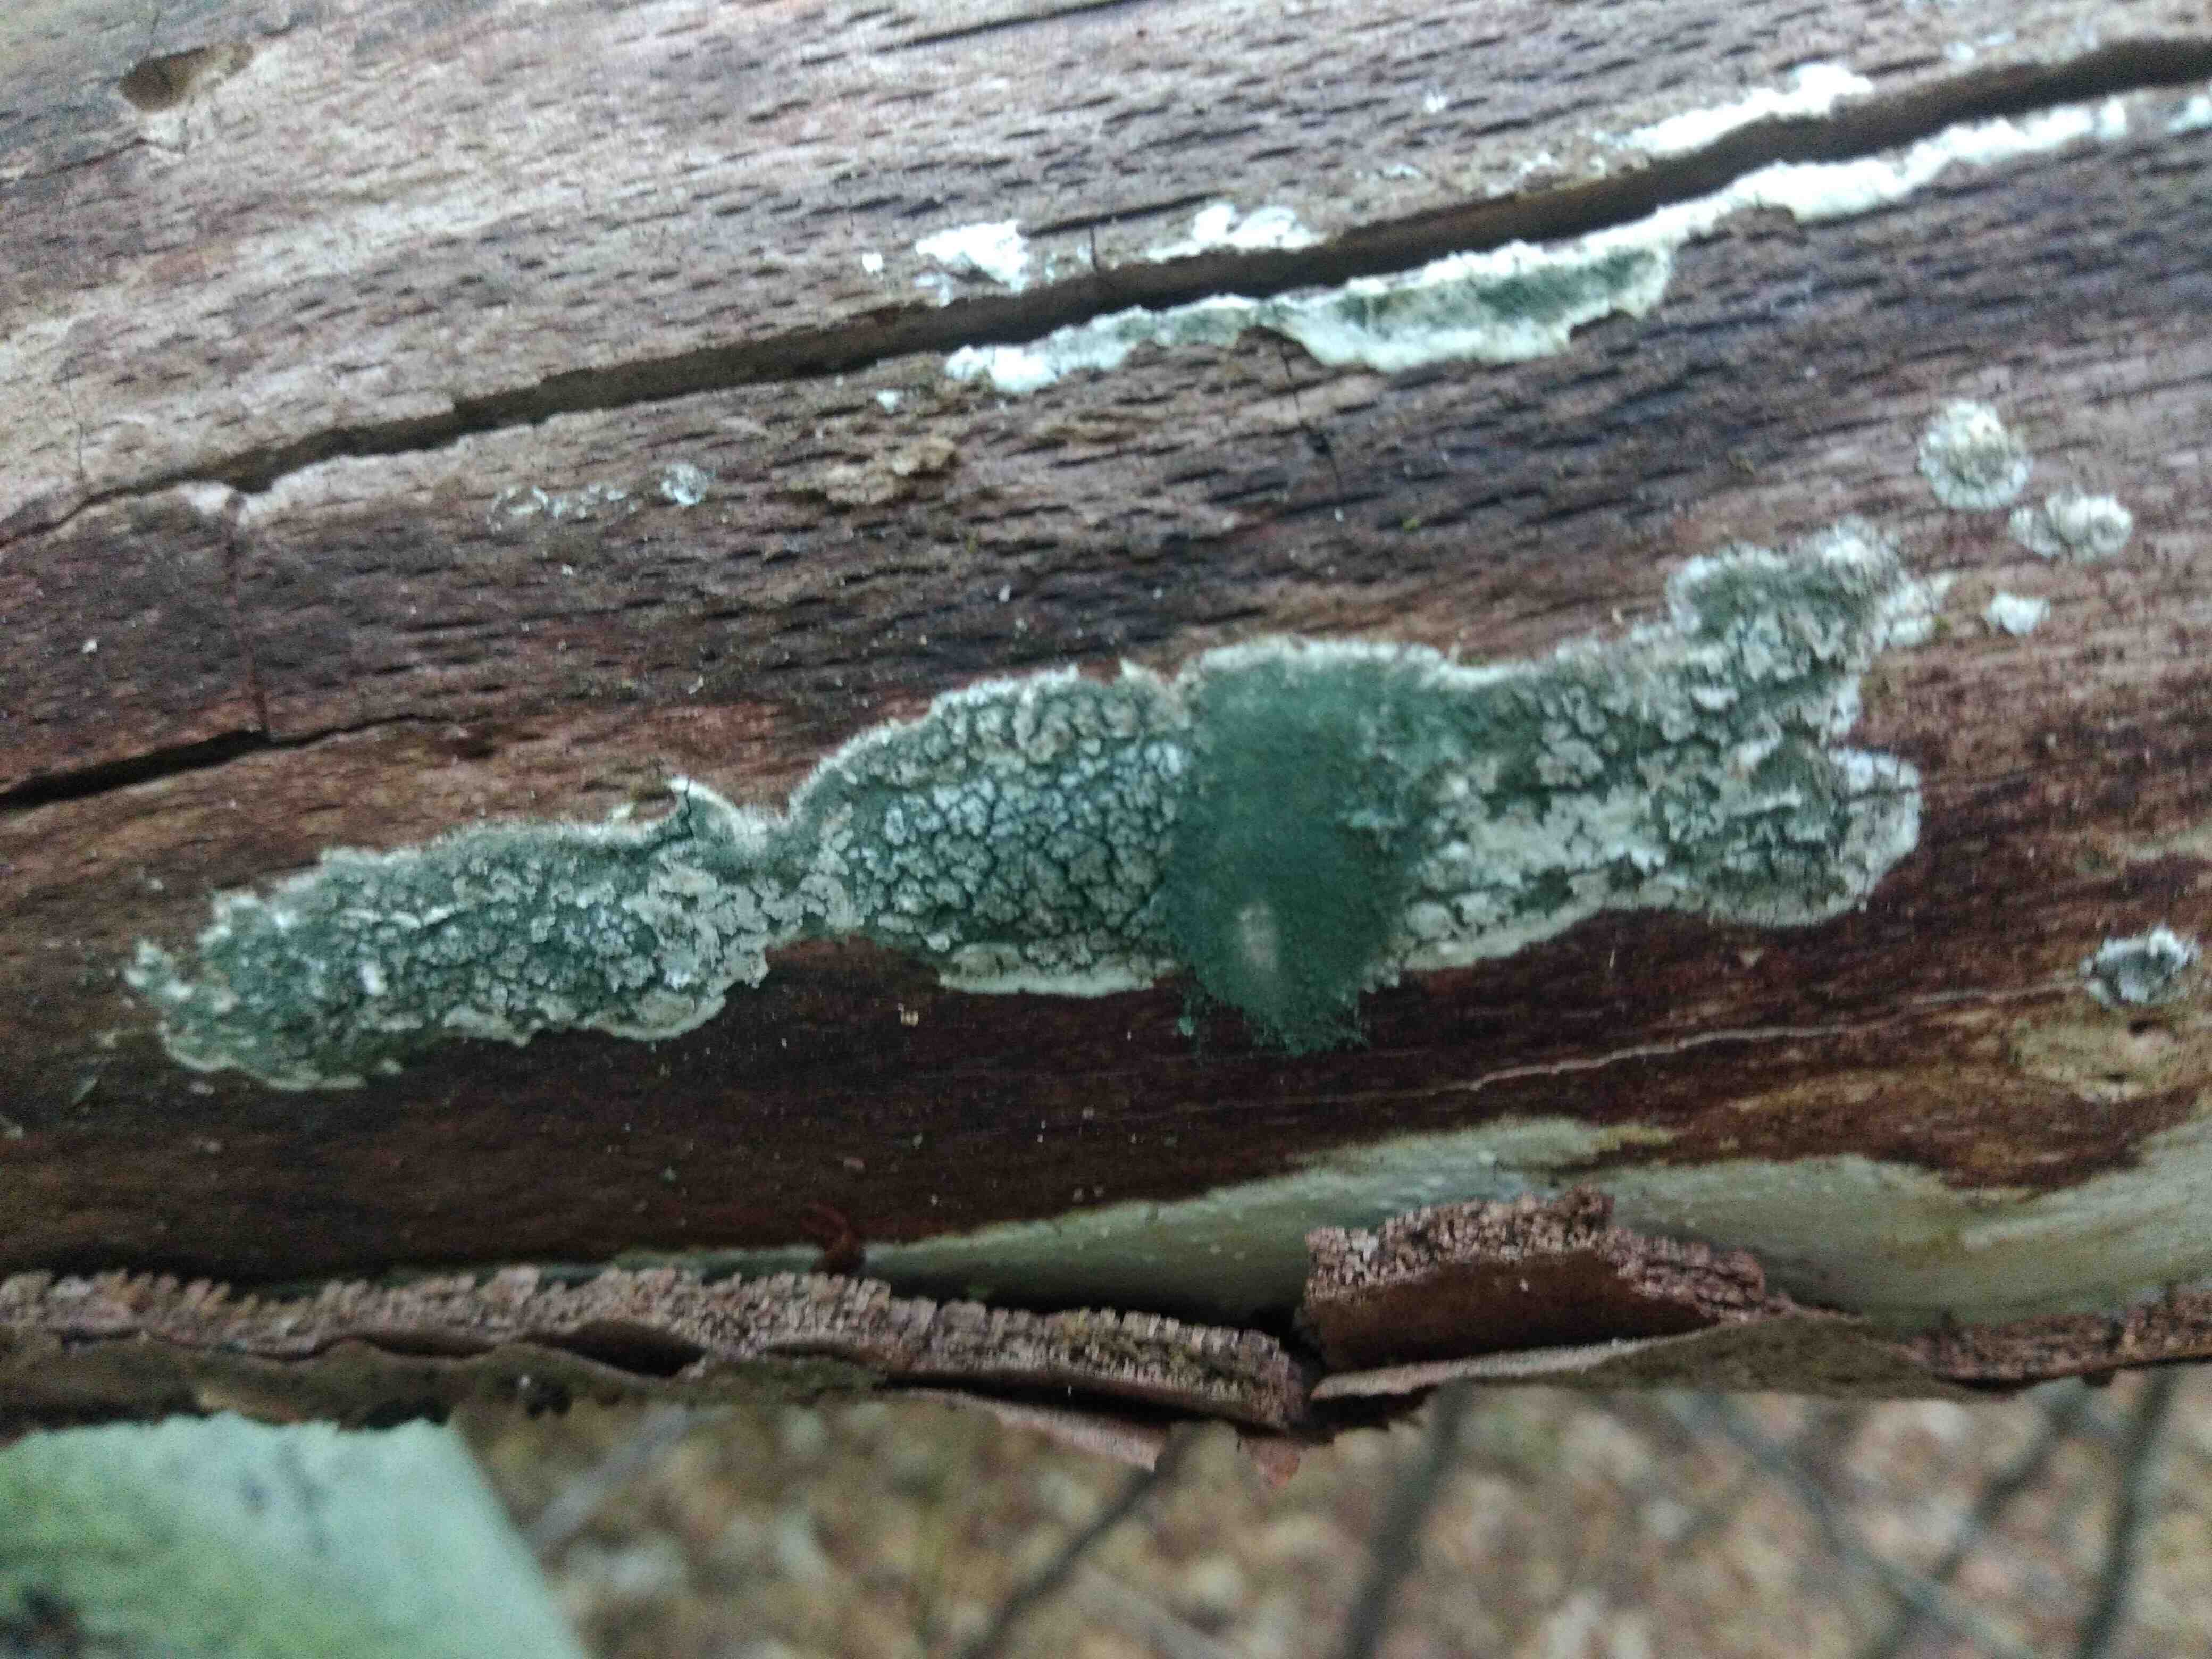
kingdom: Fungi
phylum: Ascomycota
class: Sordariomycetes
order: Hypocreales
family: Hypocreaceae
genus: Trichoderma
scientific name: Trichoderma
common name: kødkerne
